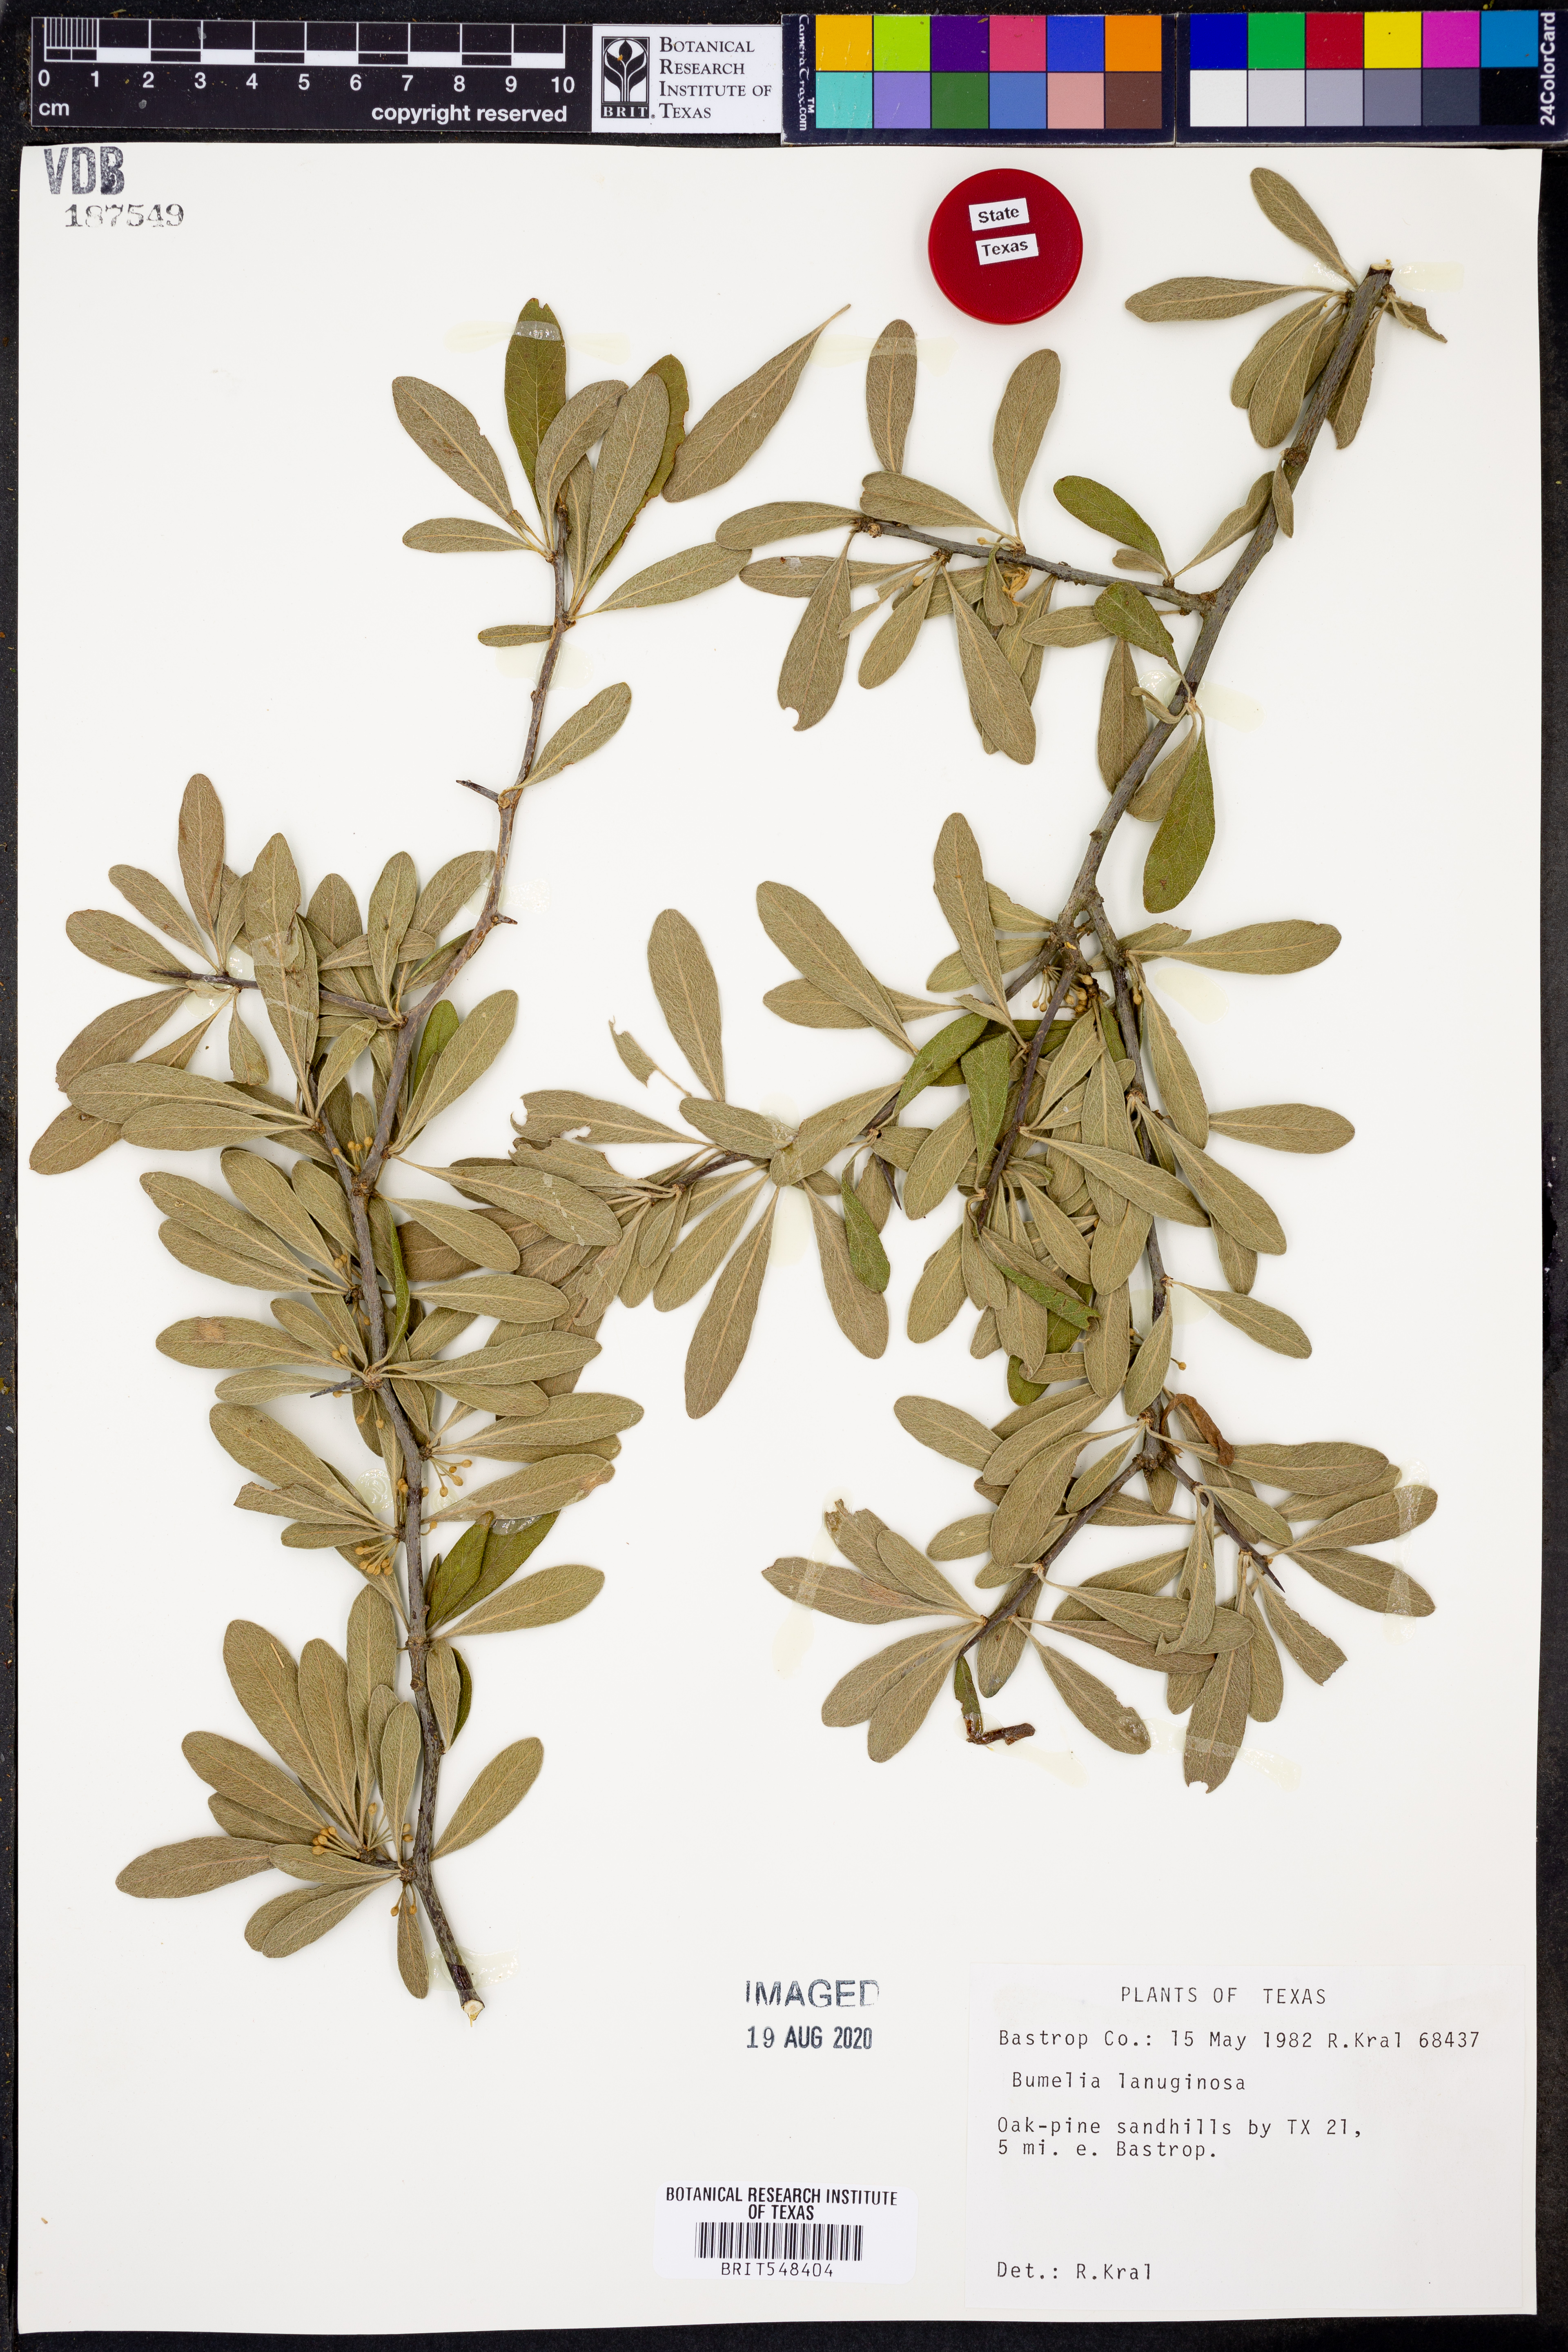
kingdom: Plantae
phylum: Tracheophyta
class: Magnoliopsida
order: Ericales
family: Sapotaceae
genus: Sideroxylon
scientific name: Sideroxylon lanuginosum
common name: Chittamwood
